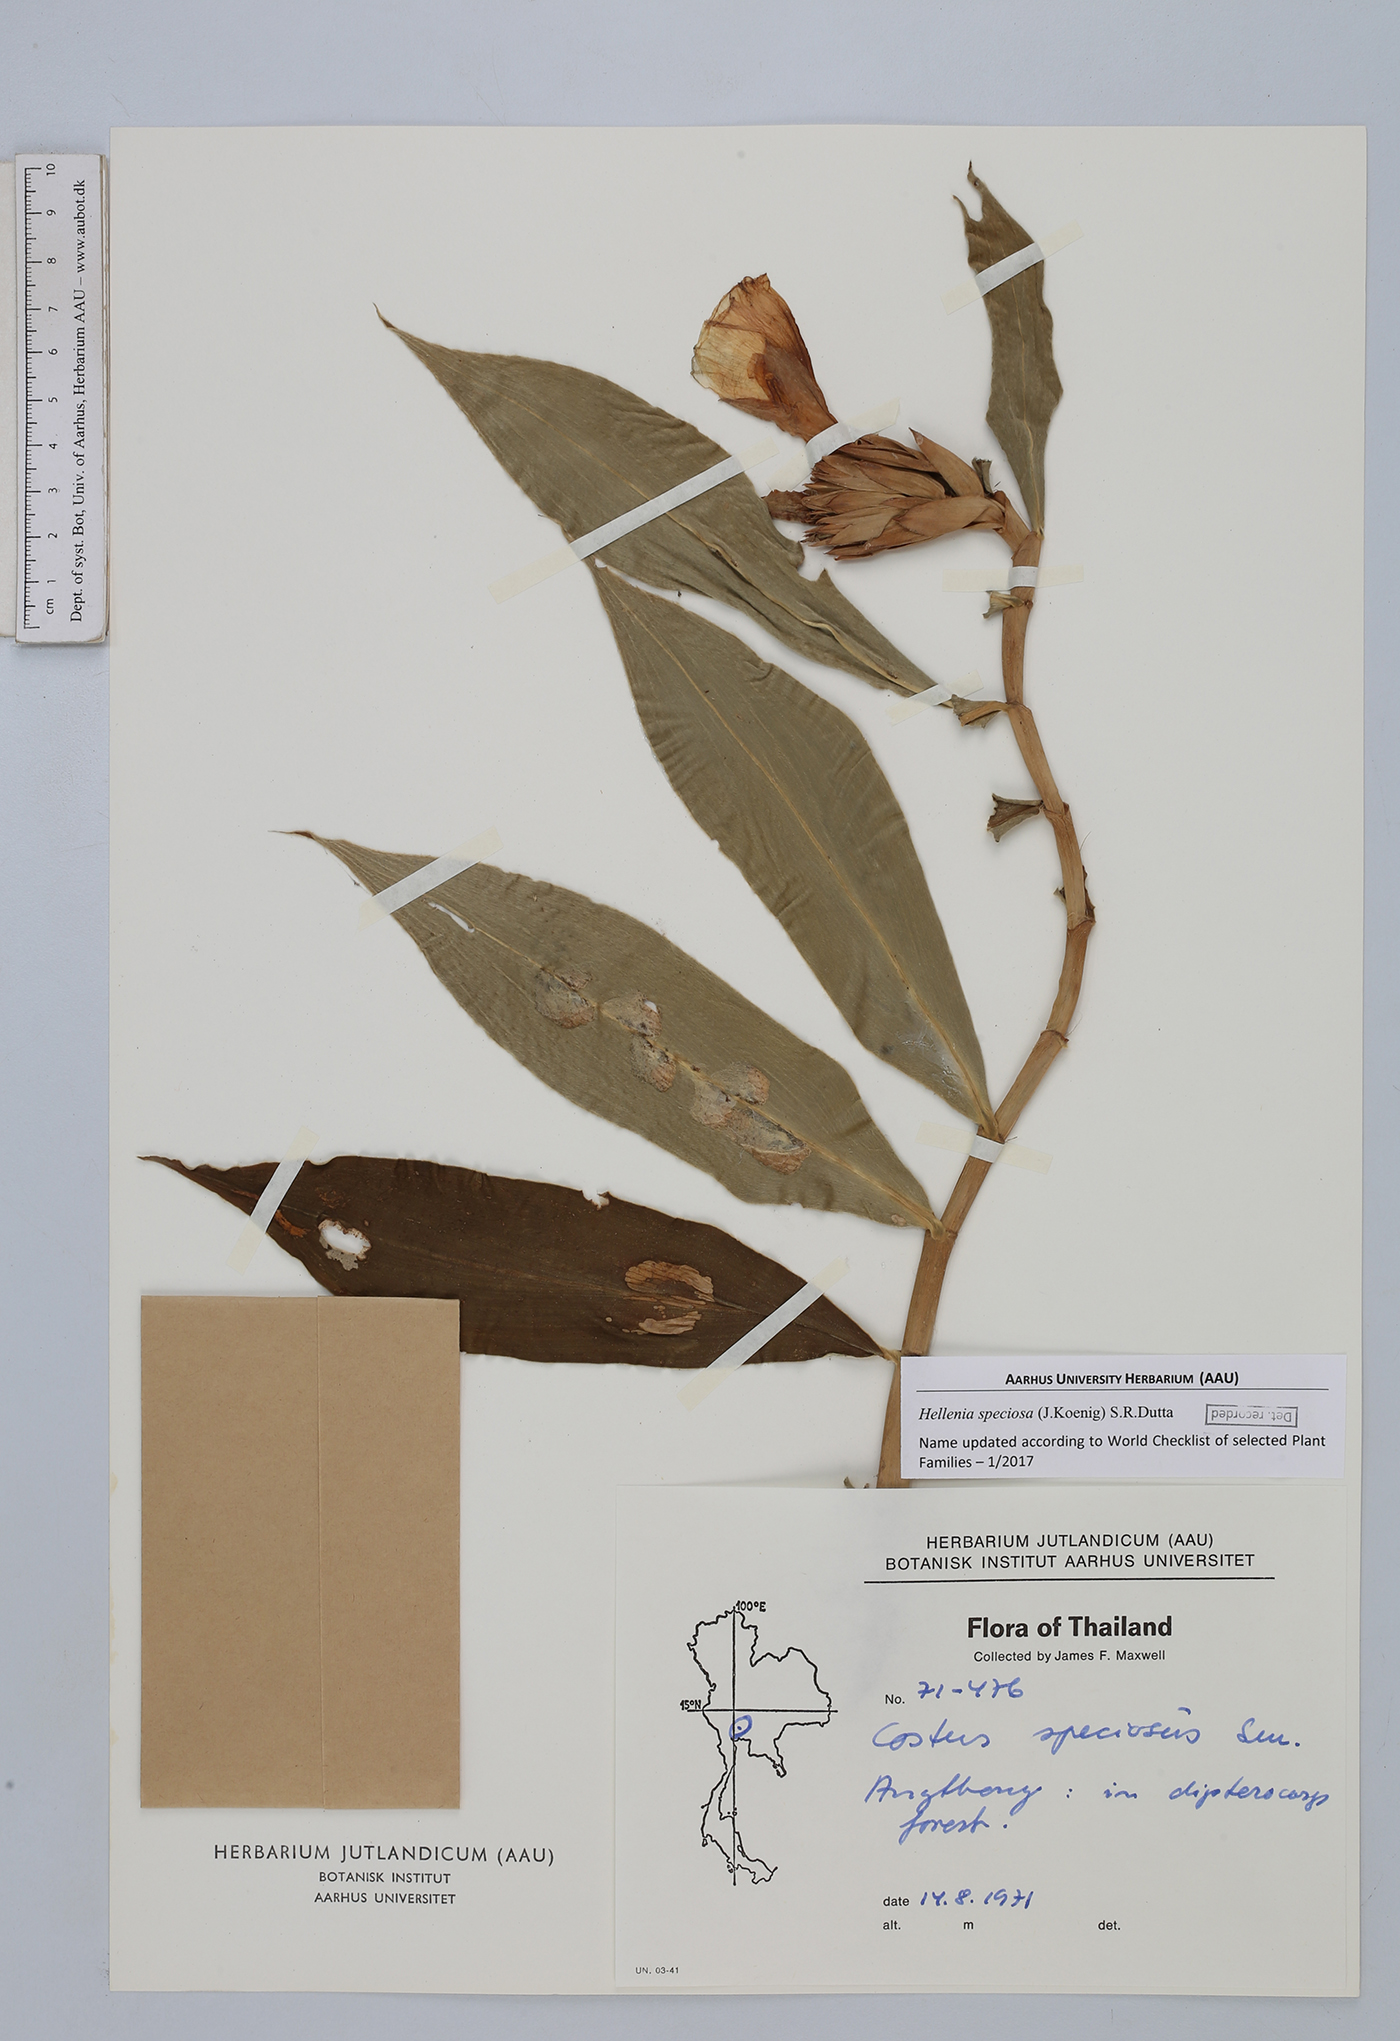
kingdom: Plantae
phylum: Tracheophyta
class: Liliopsida
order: Zingiberales
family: Costaceae
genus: Hellenia
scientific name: Hellenia speciosa
